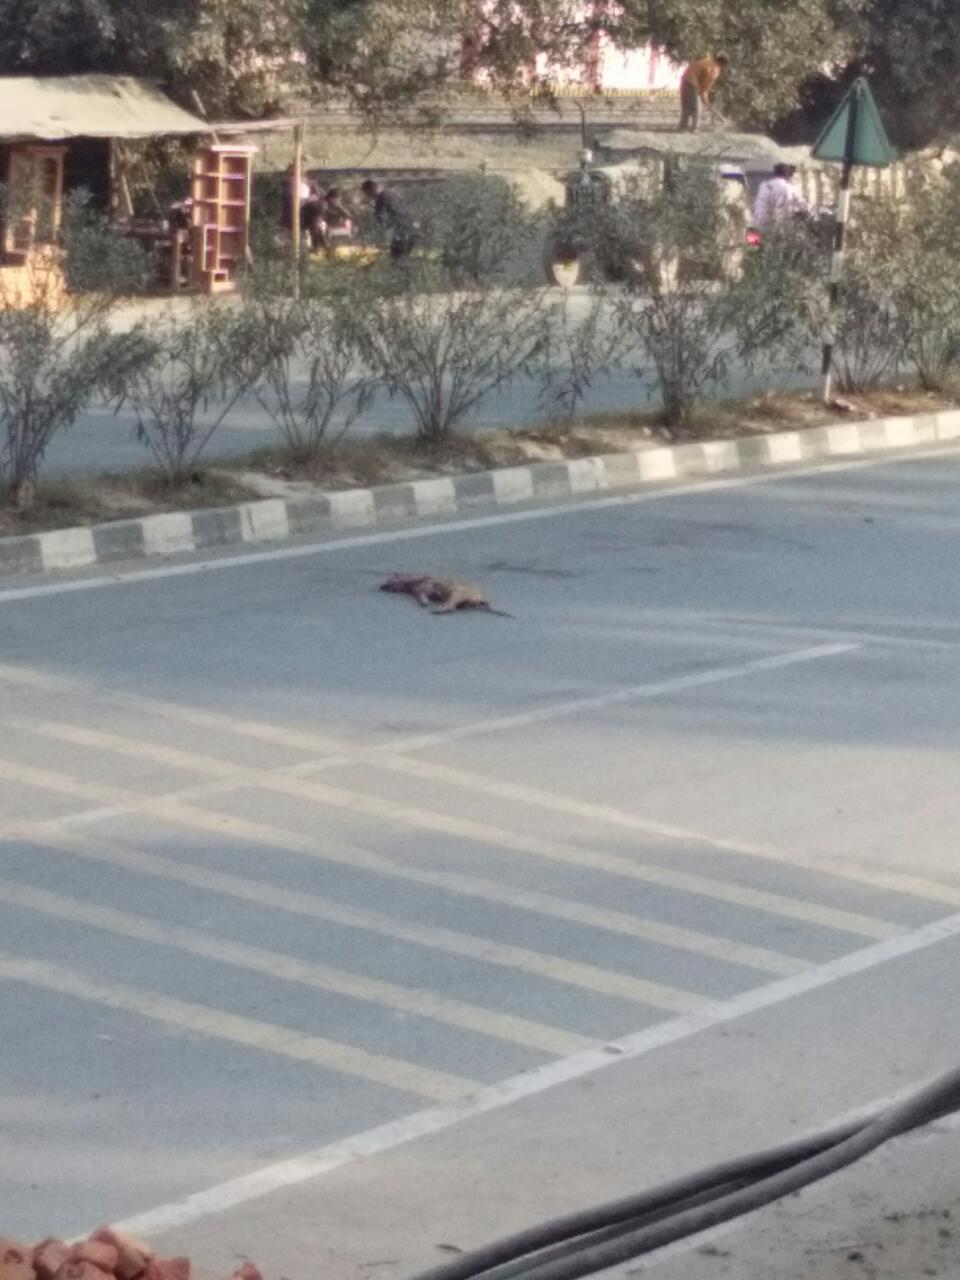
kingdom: Animalia
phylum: Chordata
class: Mammalia
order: Carnivora
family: Canidae
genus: Canis
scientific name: Canis lupus
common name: Gray wolf
